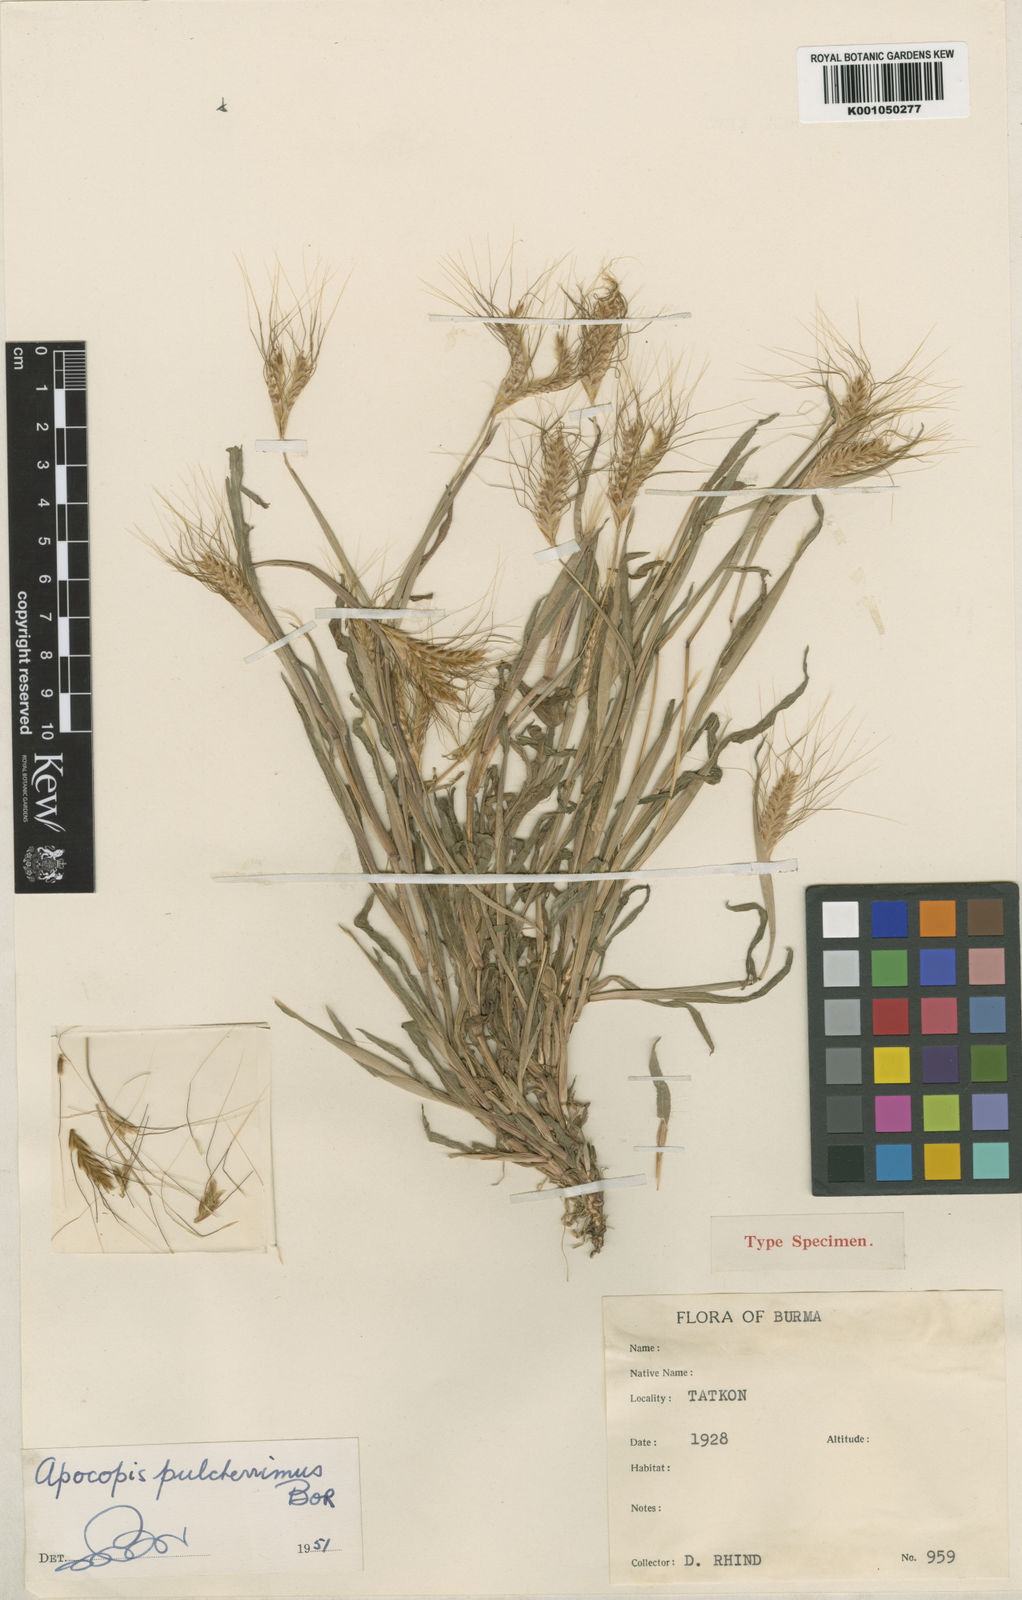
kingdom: Plantae
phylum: Tracheophyta
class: Liliopsida
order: Poales
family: Poaceae
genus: Apocopis
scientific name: Apocopis pulcherrimus
